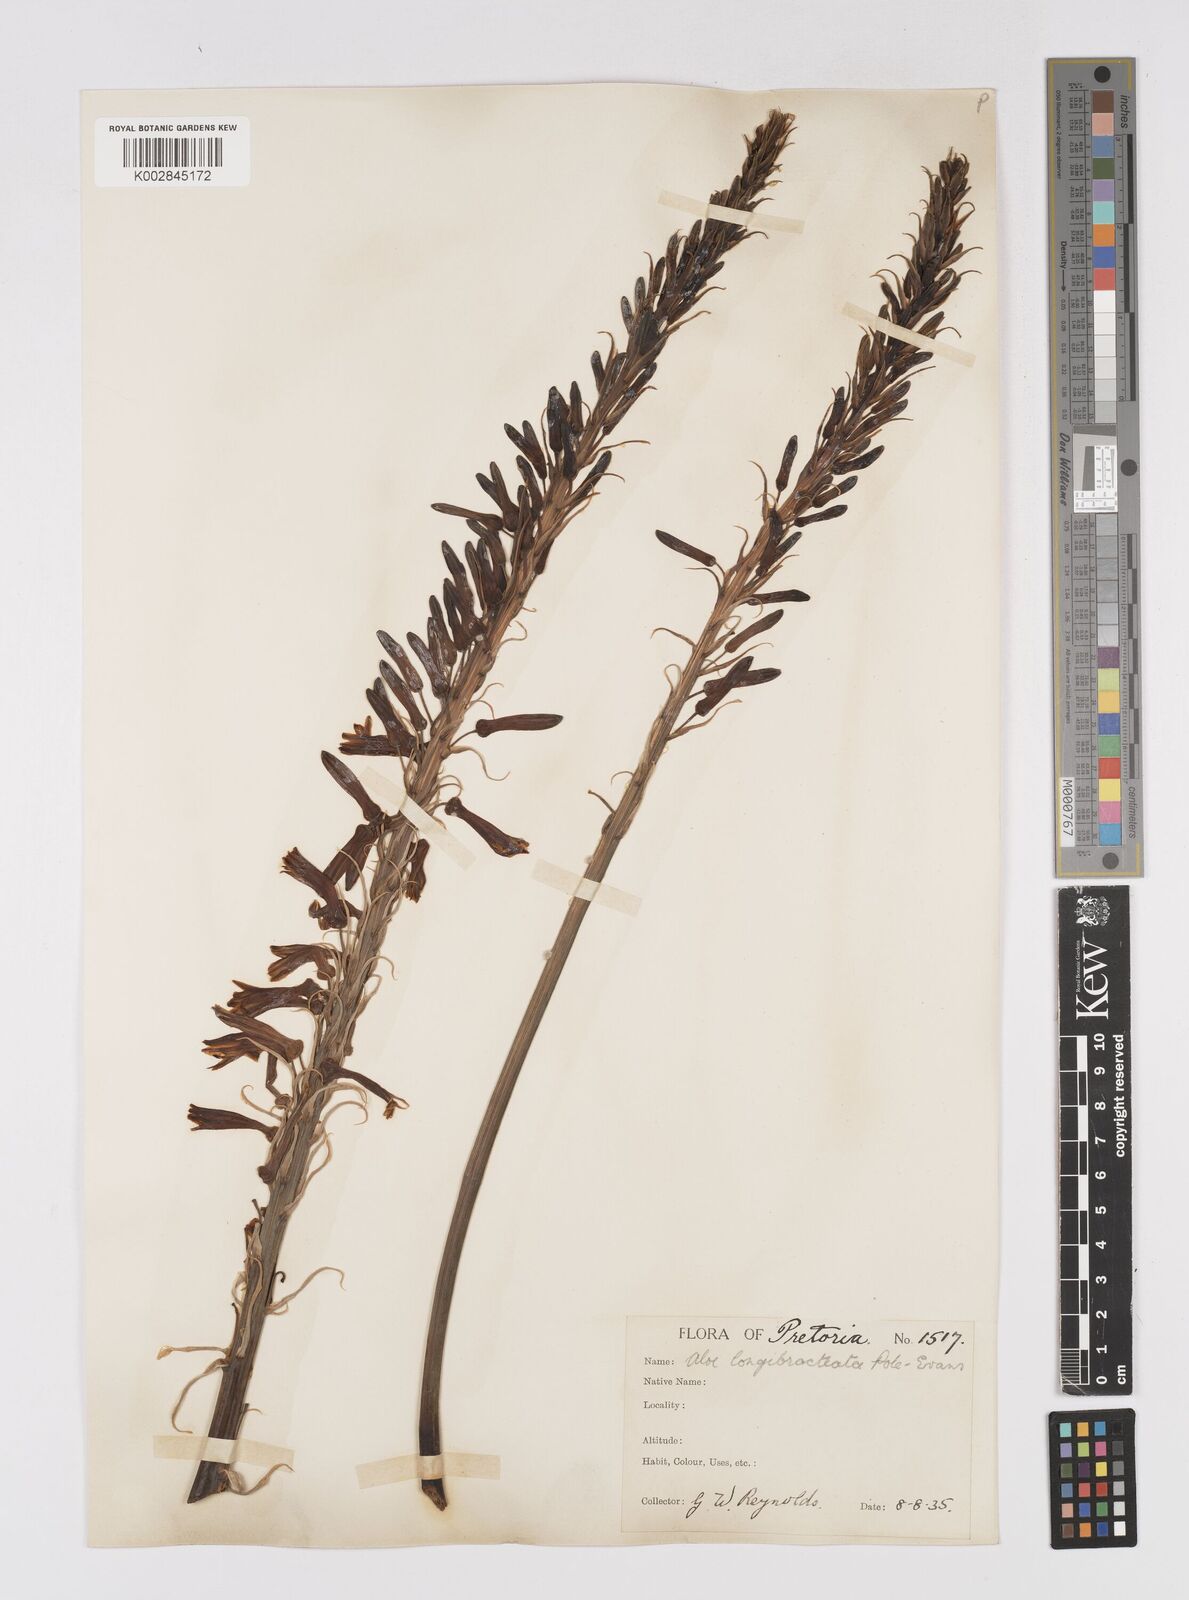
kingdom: Plantae
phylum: Tracheophyta
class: Liliopsida
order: Asparagales
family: Asphodelaceae
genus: Aloe
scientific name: Aloe longibracteata
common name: Limpopo spotted aloe
